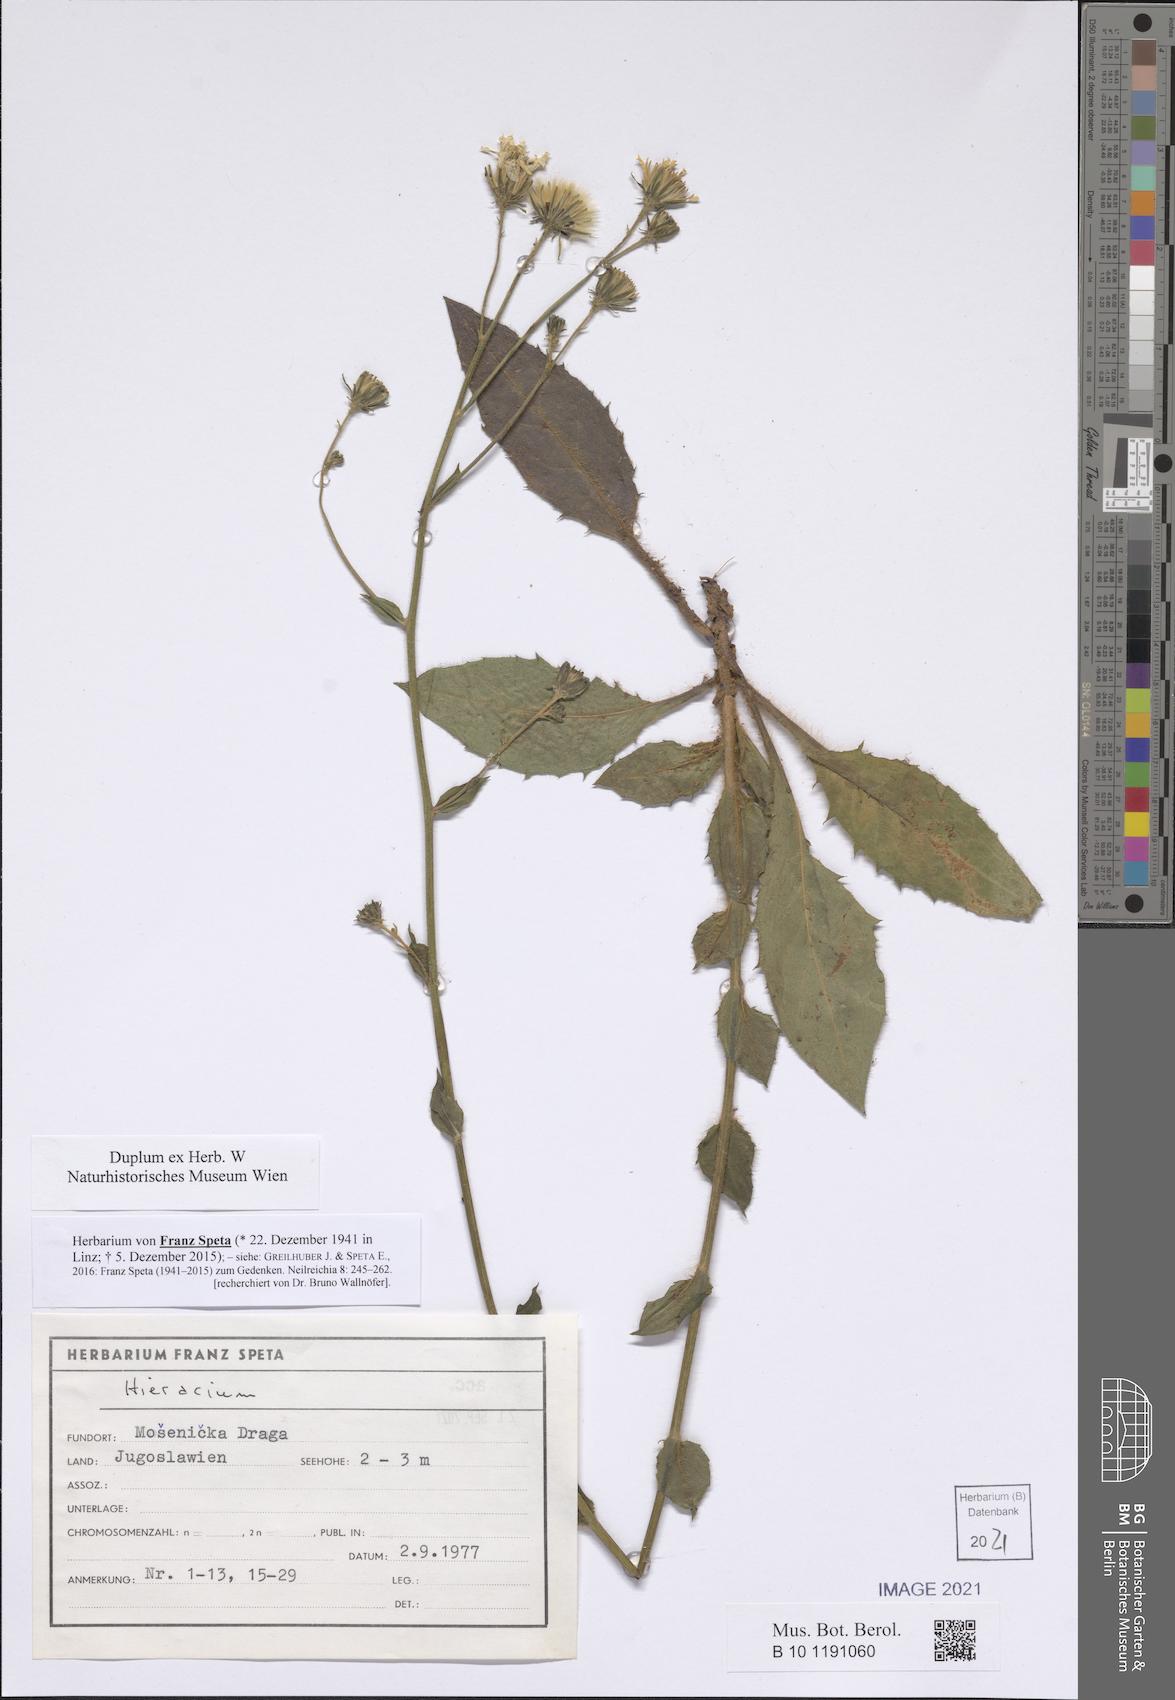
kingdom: Plantae
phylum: Tracheophyta
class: Magnoliopsida
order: Asterales
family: Asteraceae
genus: Hieracium
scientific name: Hieracium
